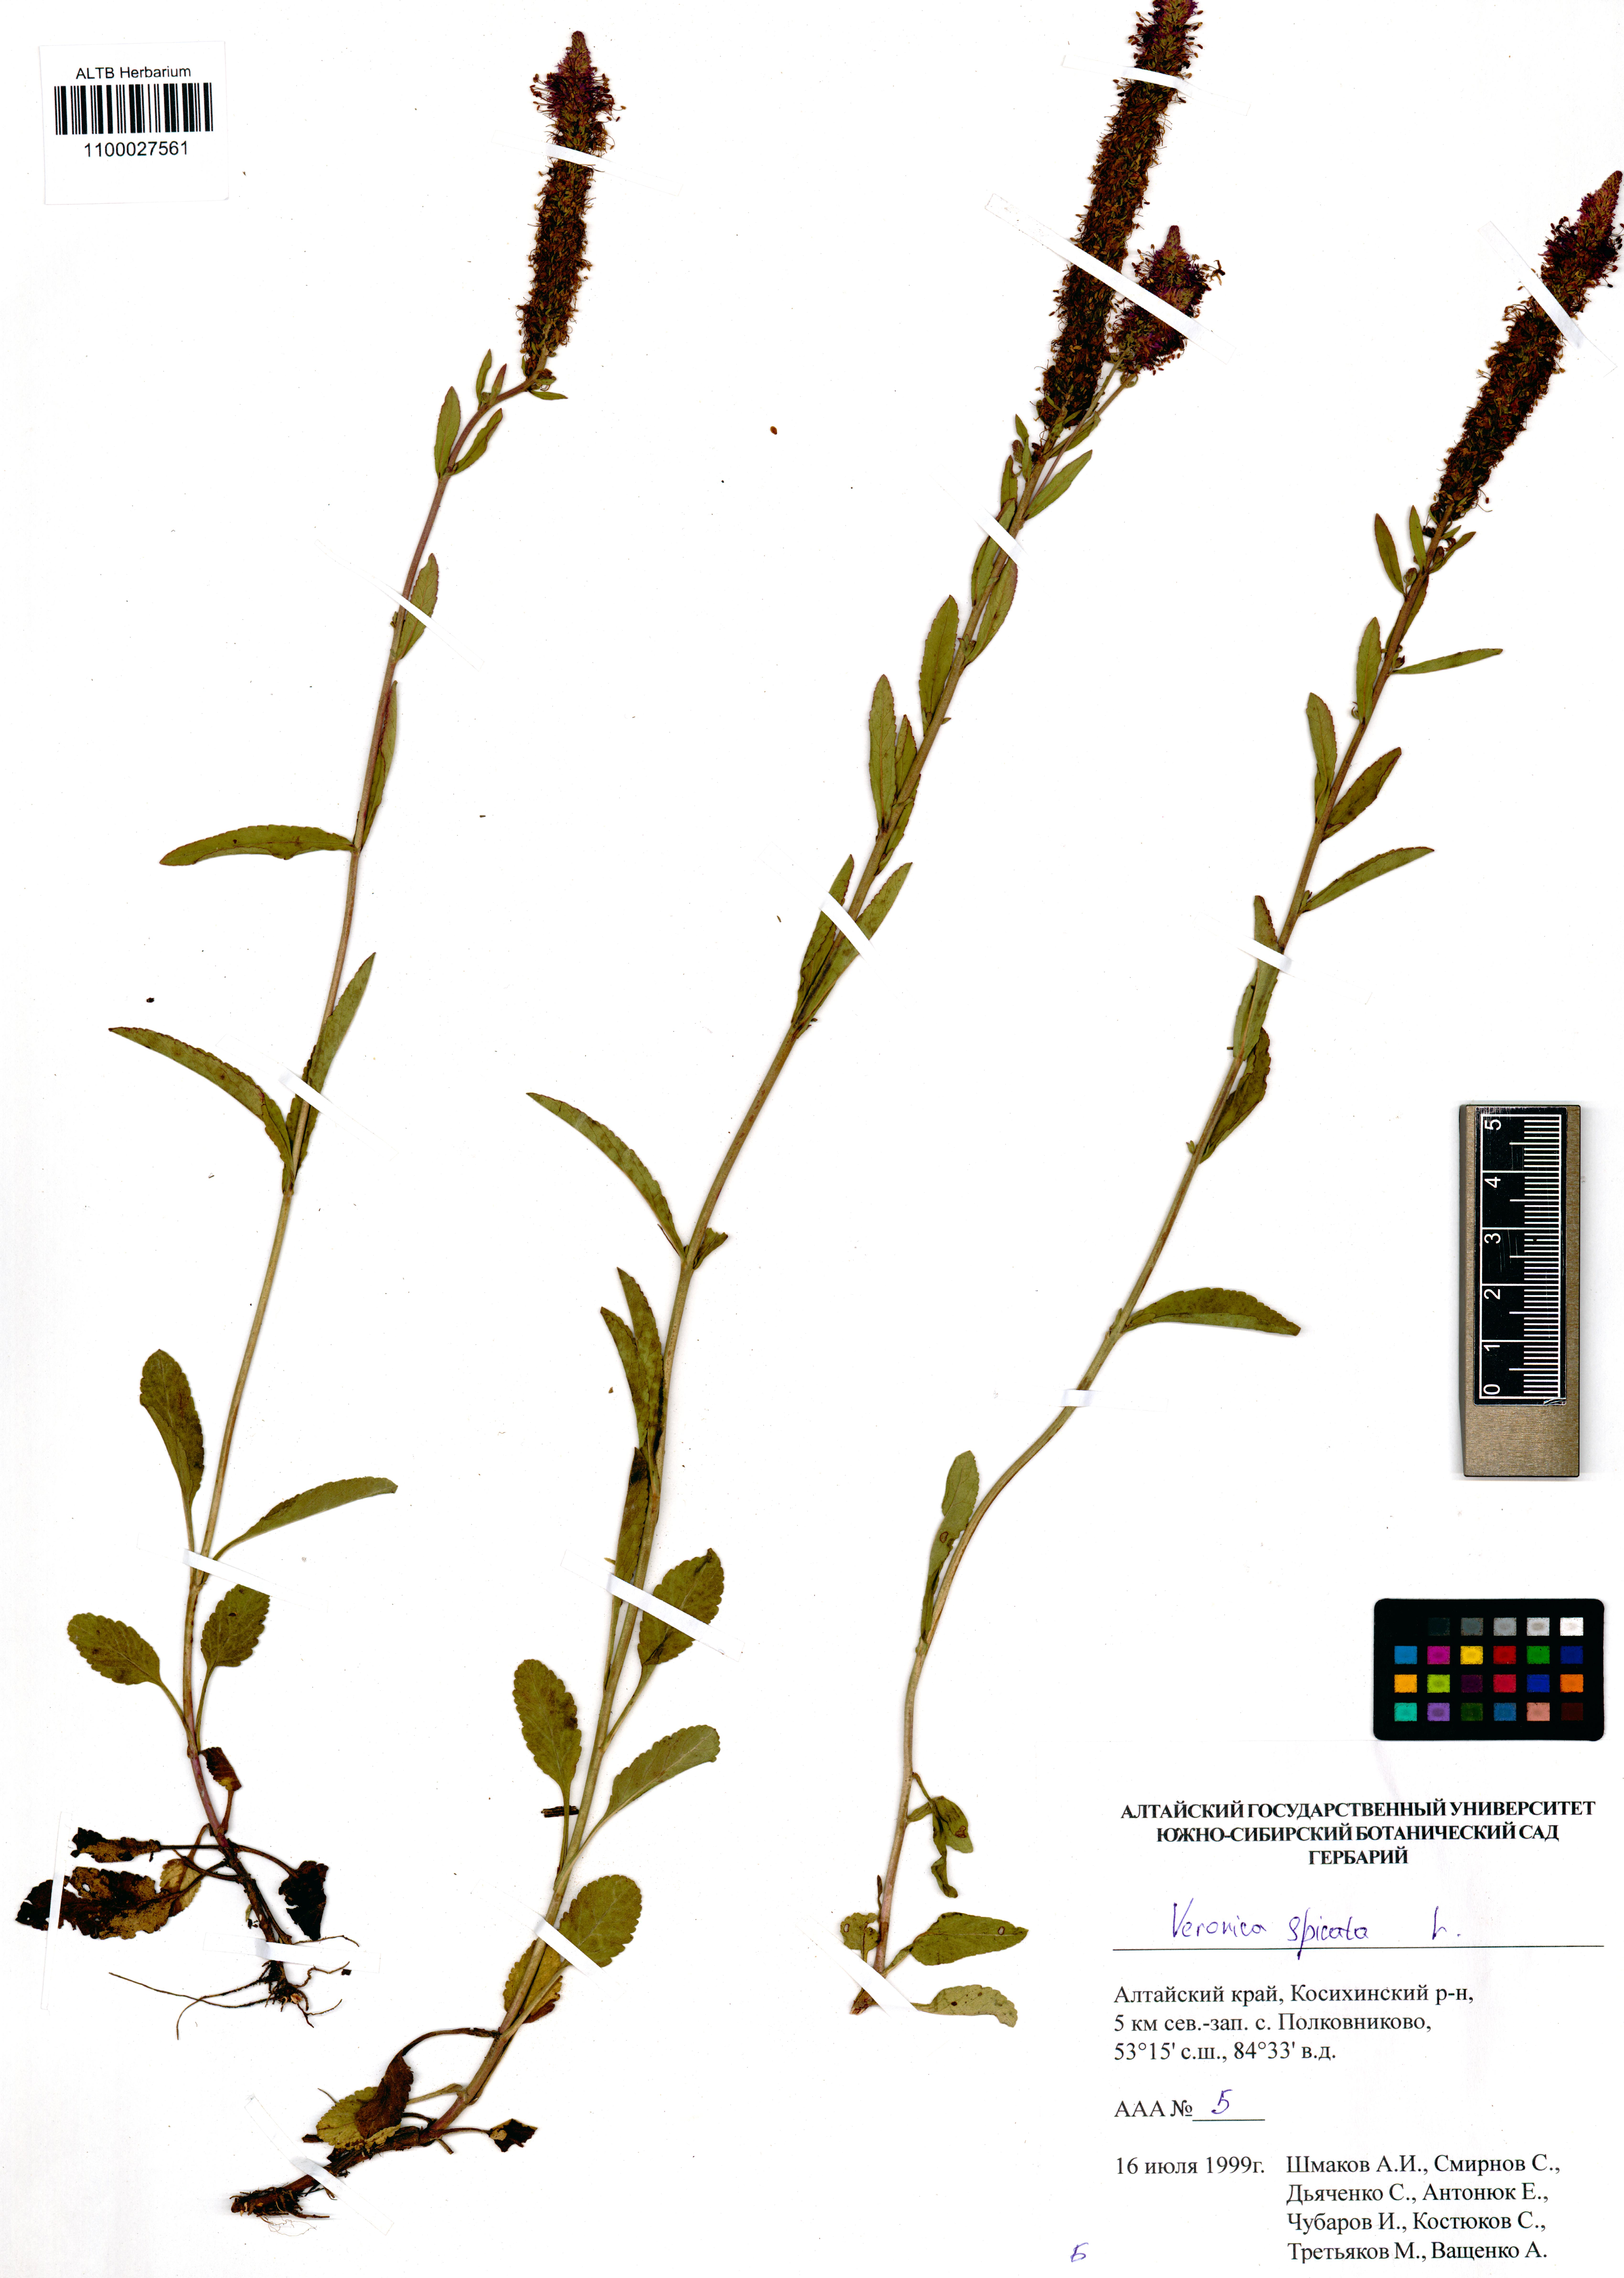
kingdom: Plantae
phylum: Tracheophyta
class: Magnoliopsida
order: Lamiales
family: Plantaginaceae
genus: Veronica
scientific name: Veronica spicata
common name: Spiked speedwell
